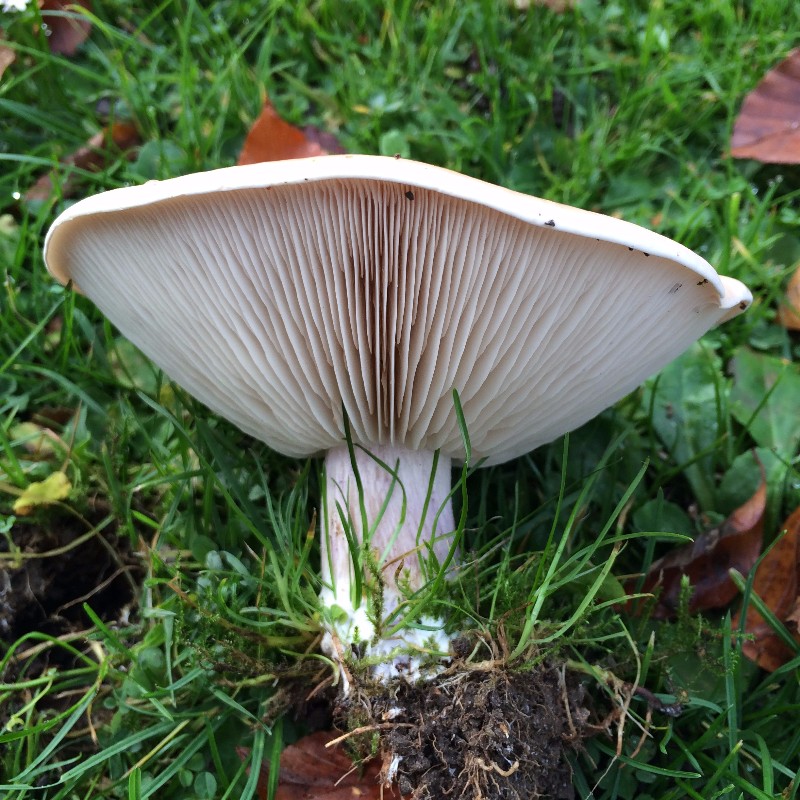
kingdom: Fungi
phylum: Basidiomycota
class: Agaricomycetes
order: Agaricales
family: Tricholomataceae
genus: Lepista
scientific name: Lepista personata
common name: bleg hekseringshat
